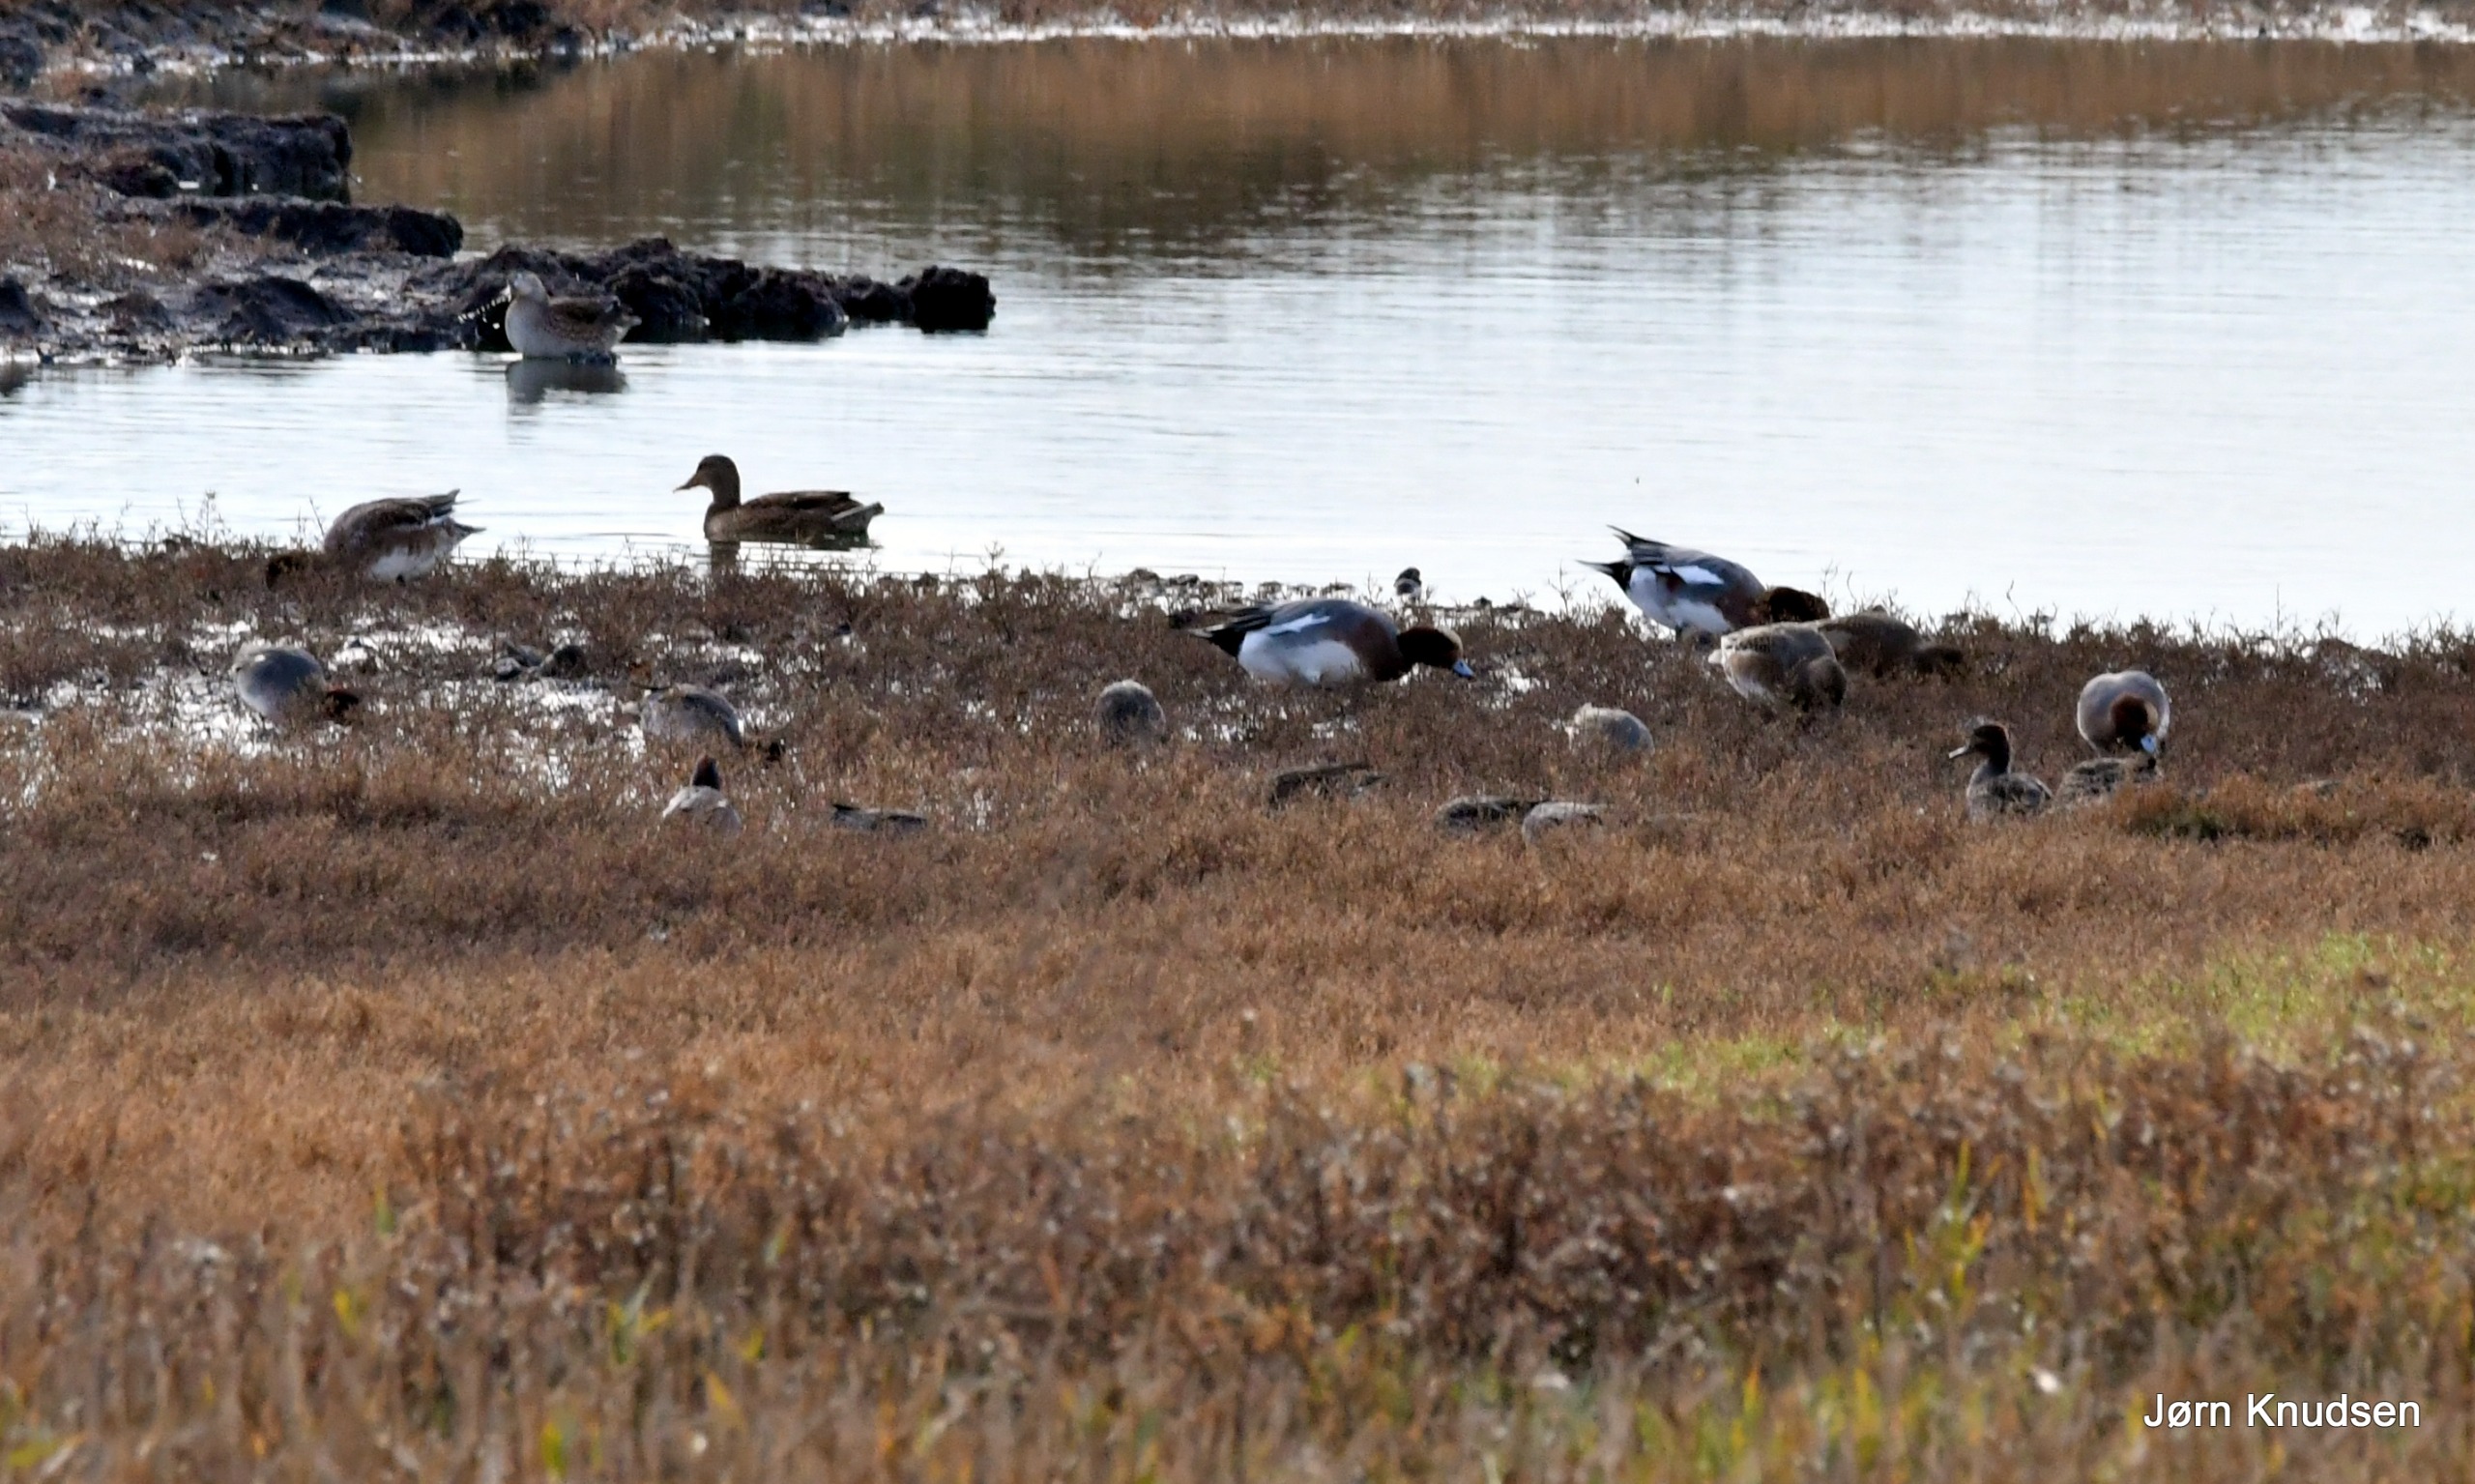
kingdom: Animalia
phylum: Chordata
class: Aves
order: Anseriformes
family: Anatidae
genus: Mareca
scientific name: Mareca penelope
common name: Pibeand
